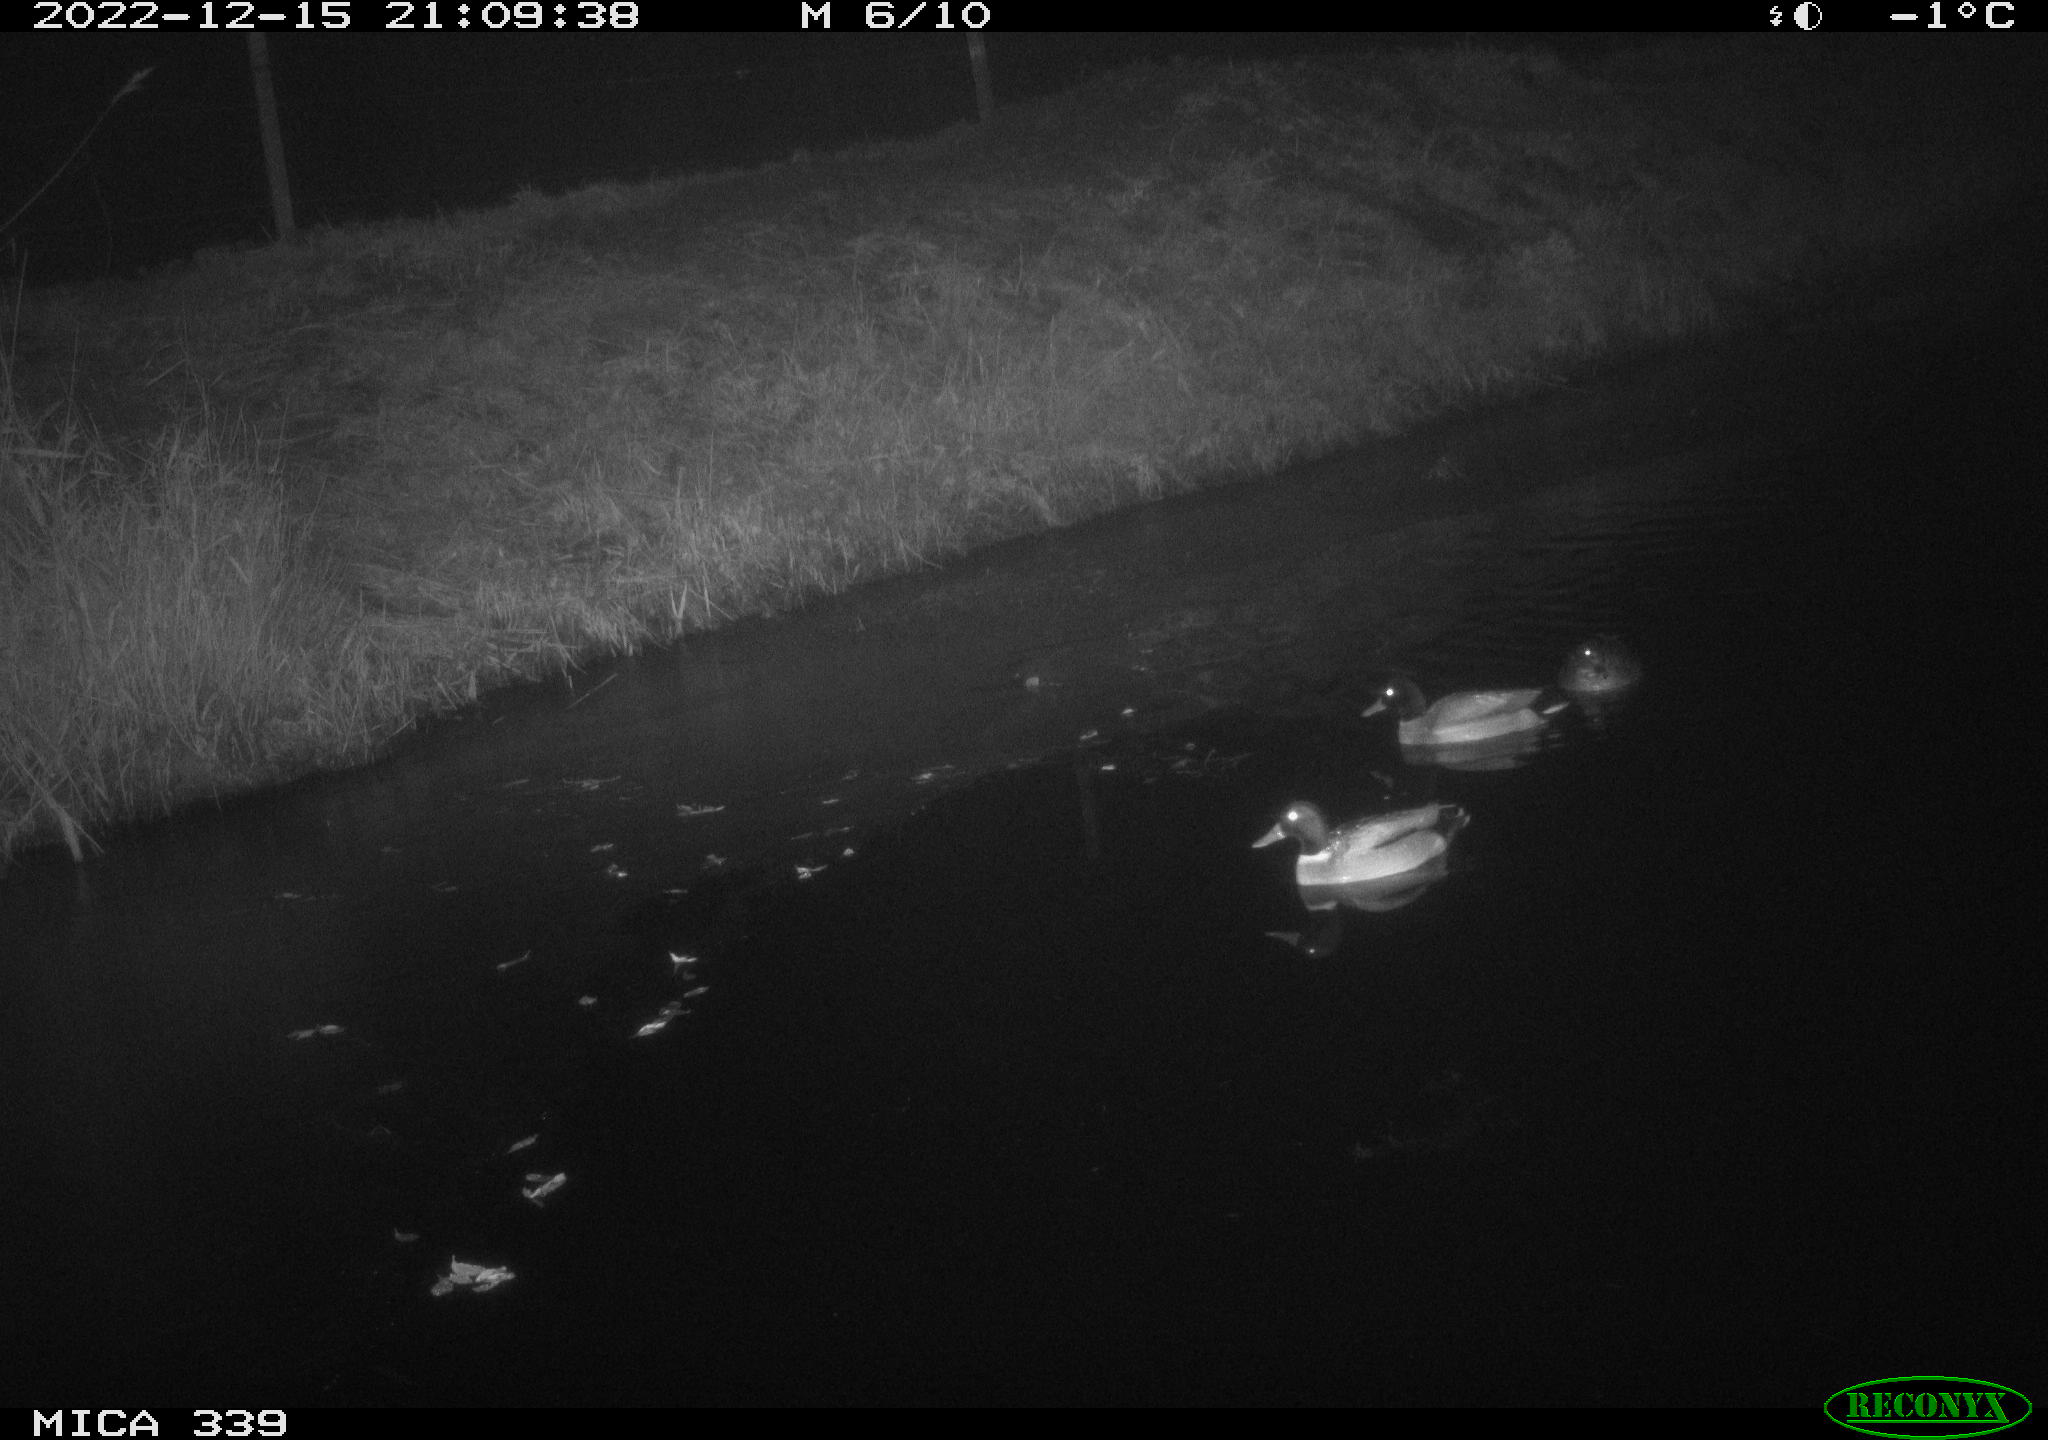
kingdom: Animalia
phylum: Chordata
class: Aves
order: Anseriformes
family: Anatidae
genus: Anas
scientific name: Anas
